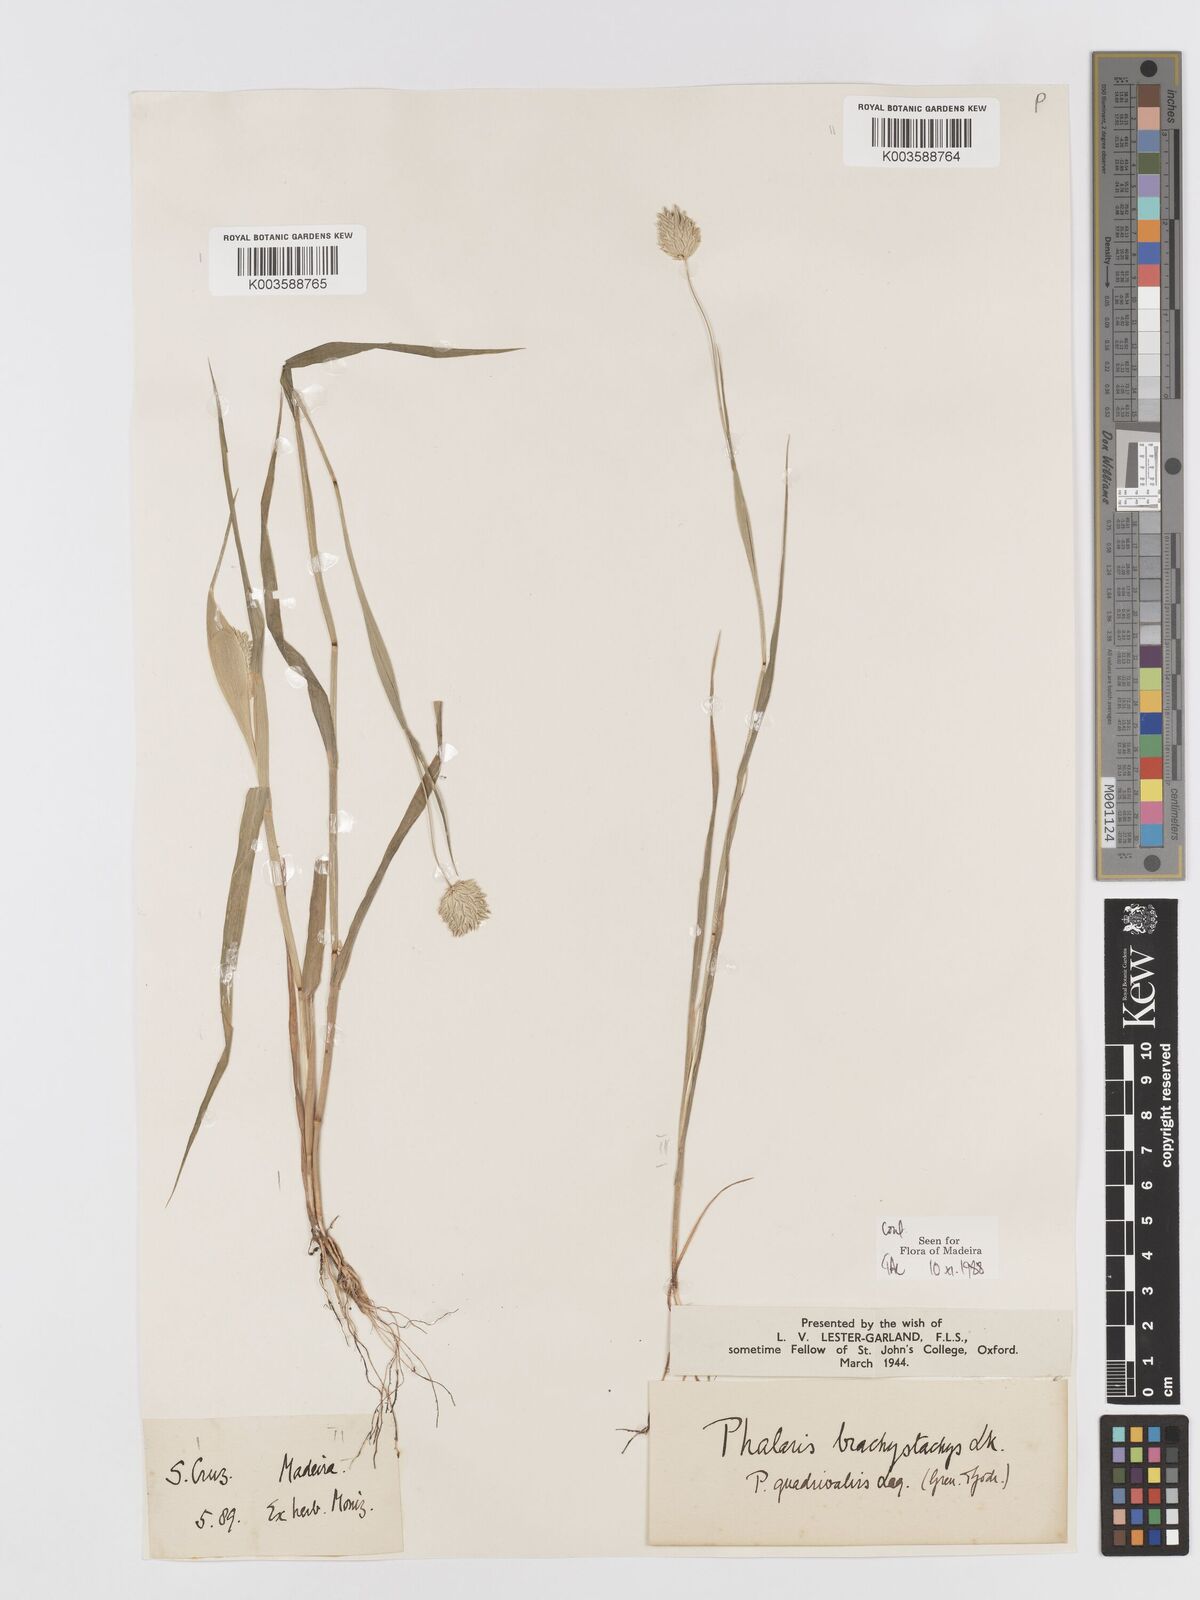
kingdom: Plantae
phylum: Tracheophyta
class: Liliopsida
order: Poales
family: Poaceae
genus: Phalaris
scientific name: Phalaris brachystachys
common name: Confused canary-grass
